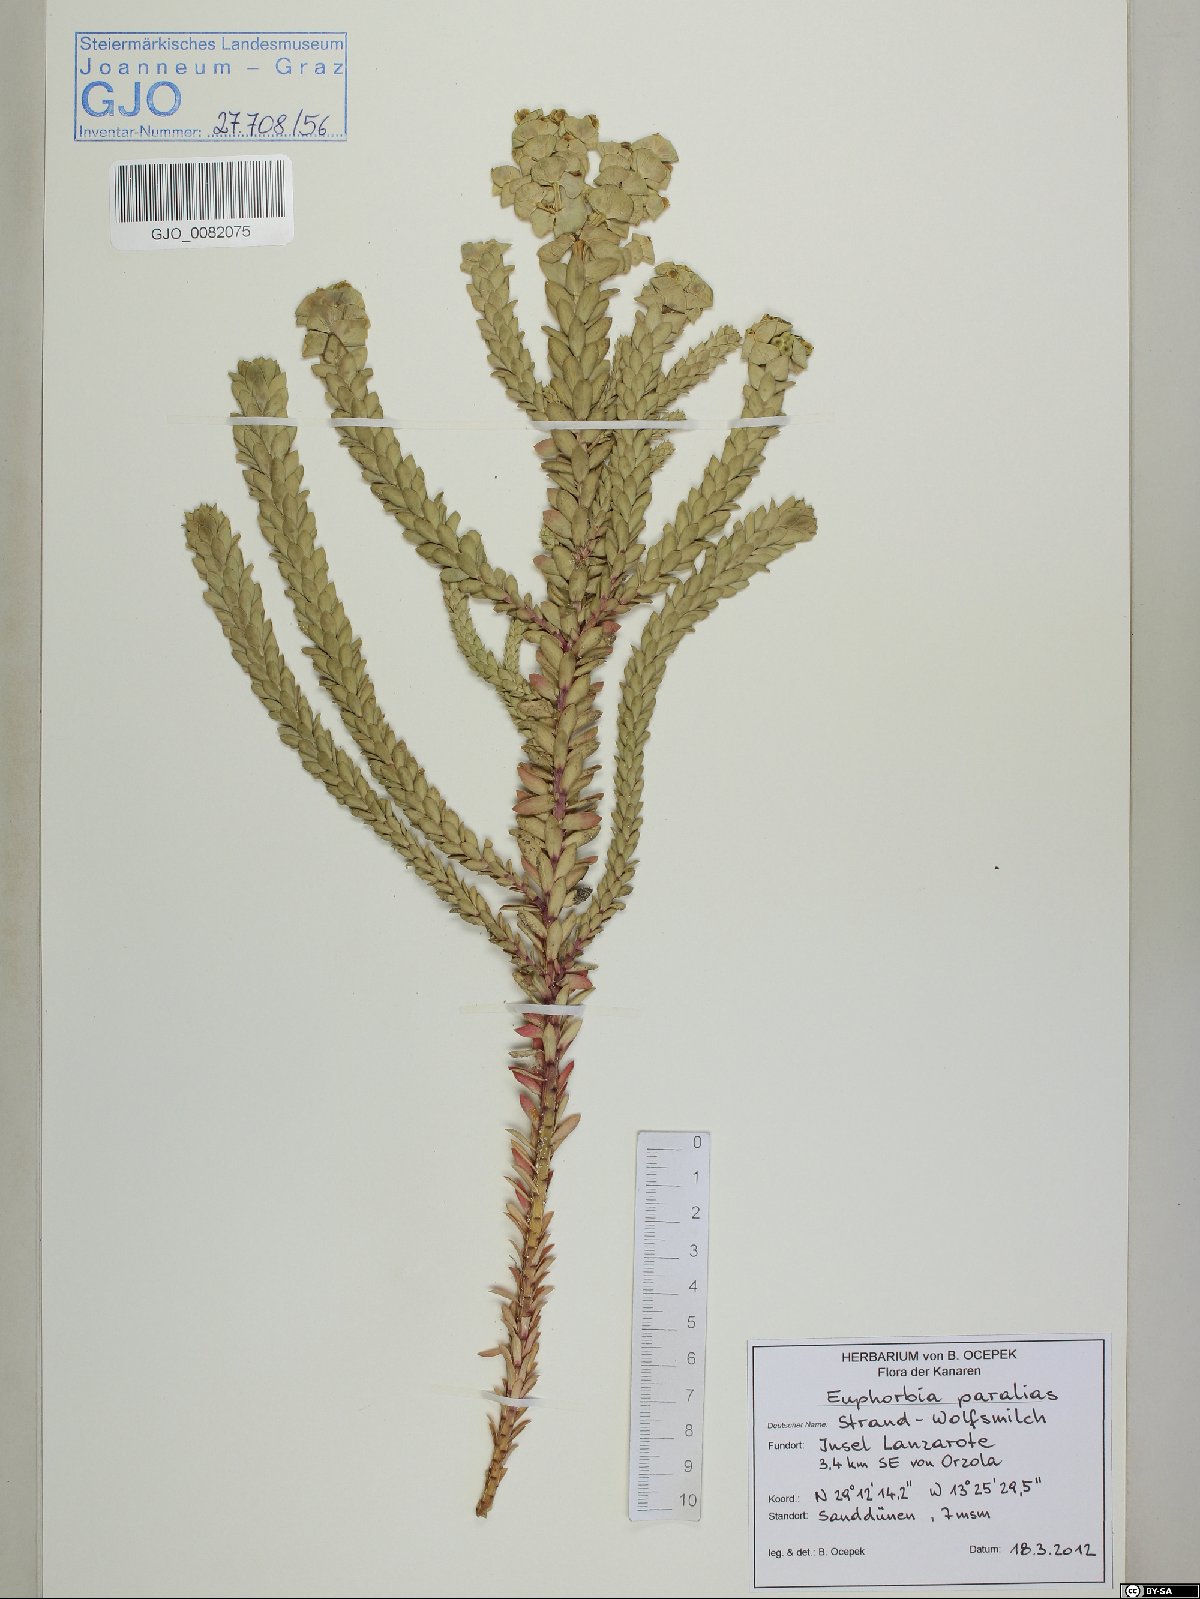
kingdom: Plantae
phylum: Tracheophyta
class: Magnoliopsida
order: Malpighiales
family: Euphorbiaceae
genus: Euphorbia
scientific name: Euphorbia paralias
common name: Sea spurge
